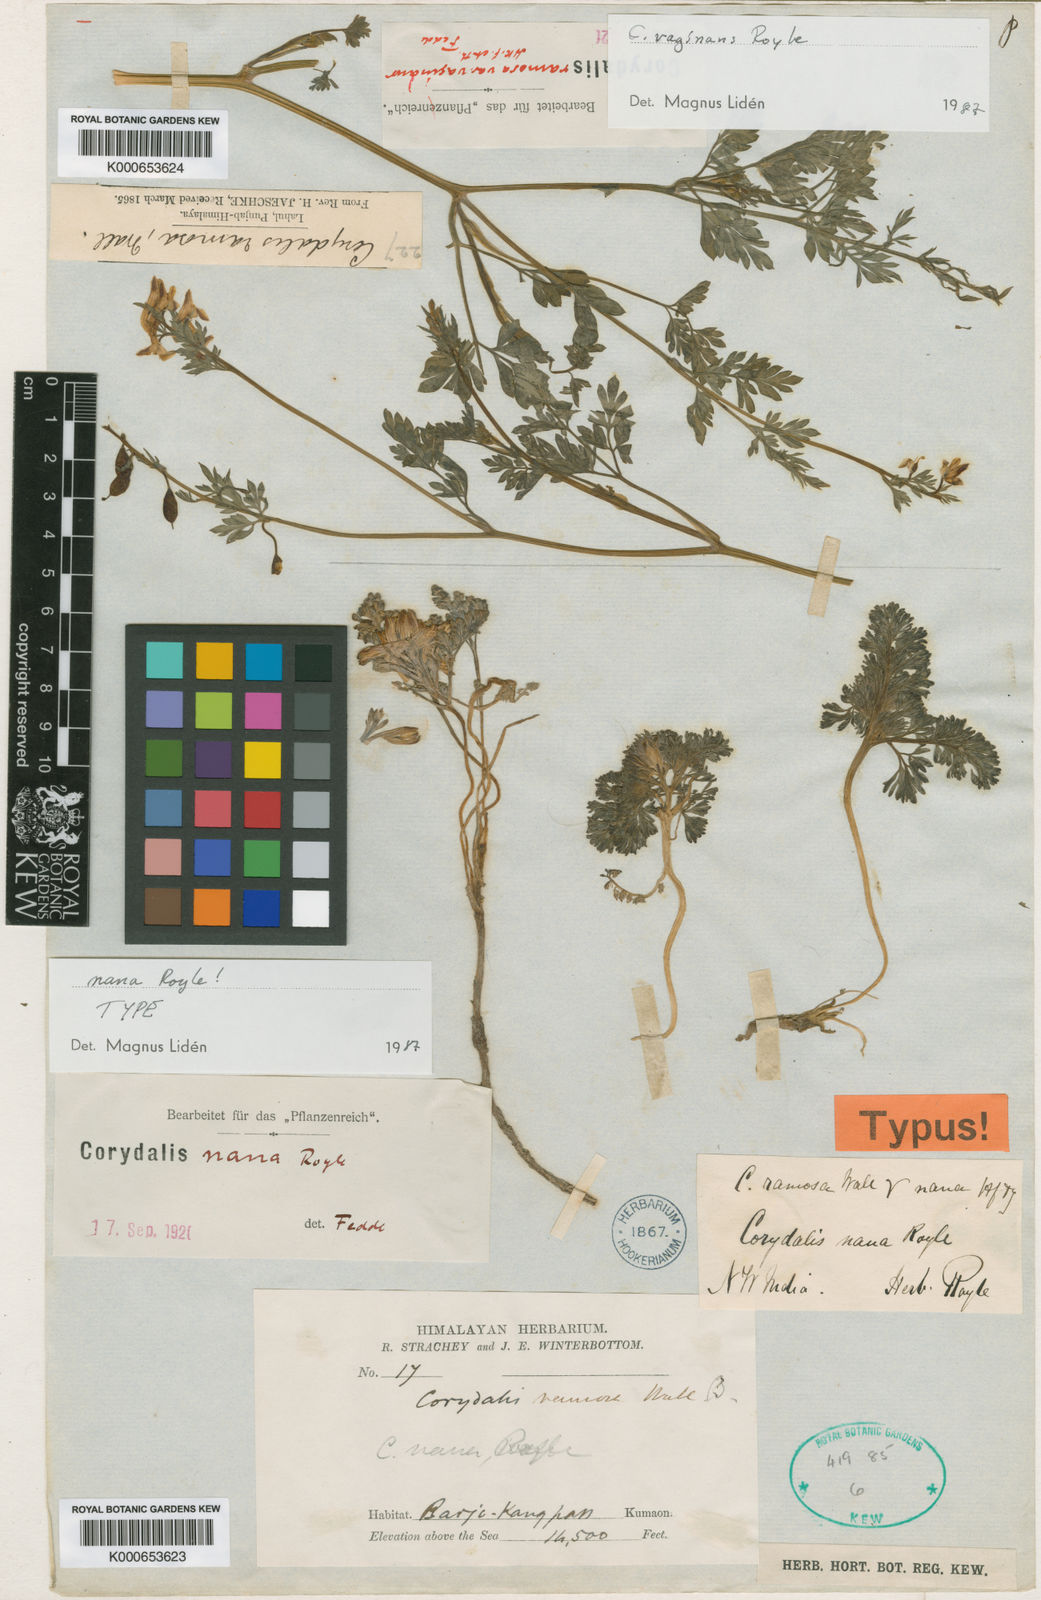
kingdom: Plantae
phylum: Tracheophyta
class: Magnoliopsida
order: Ranunculales
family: Papaveraceae
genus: Corydalis
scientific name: Corydalis nana
